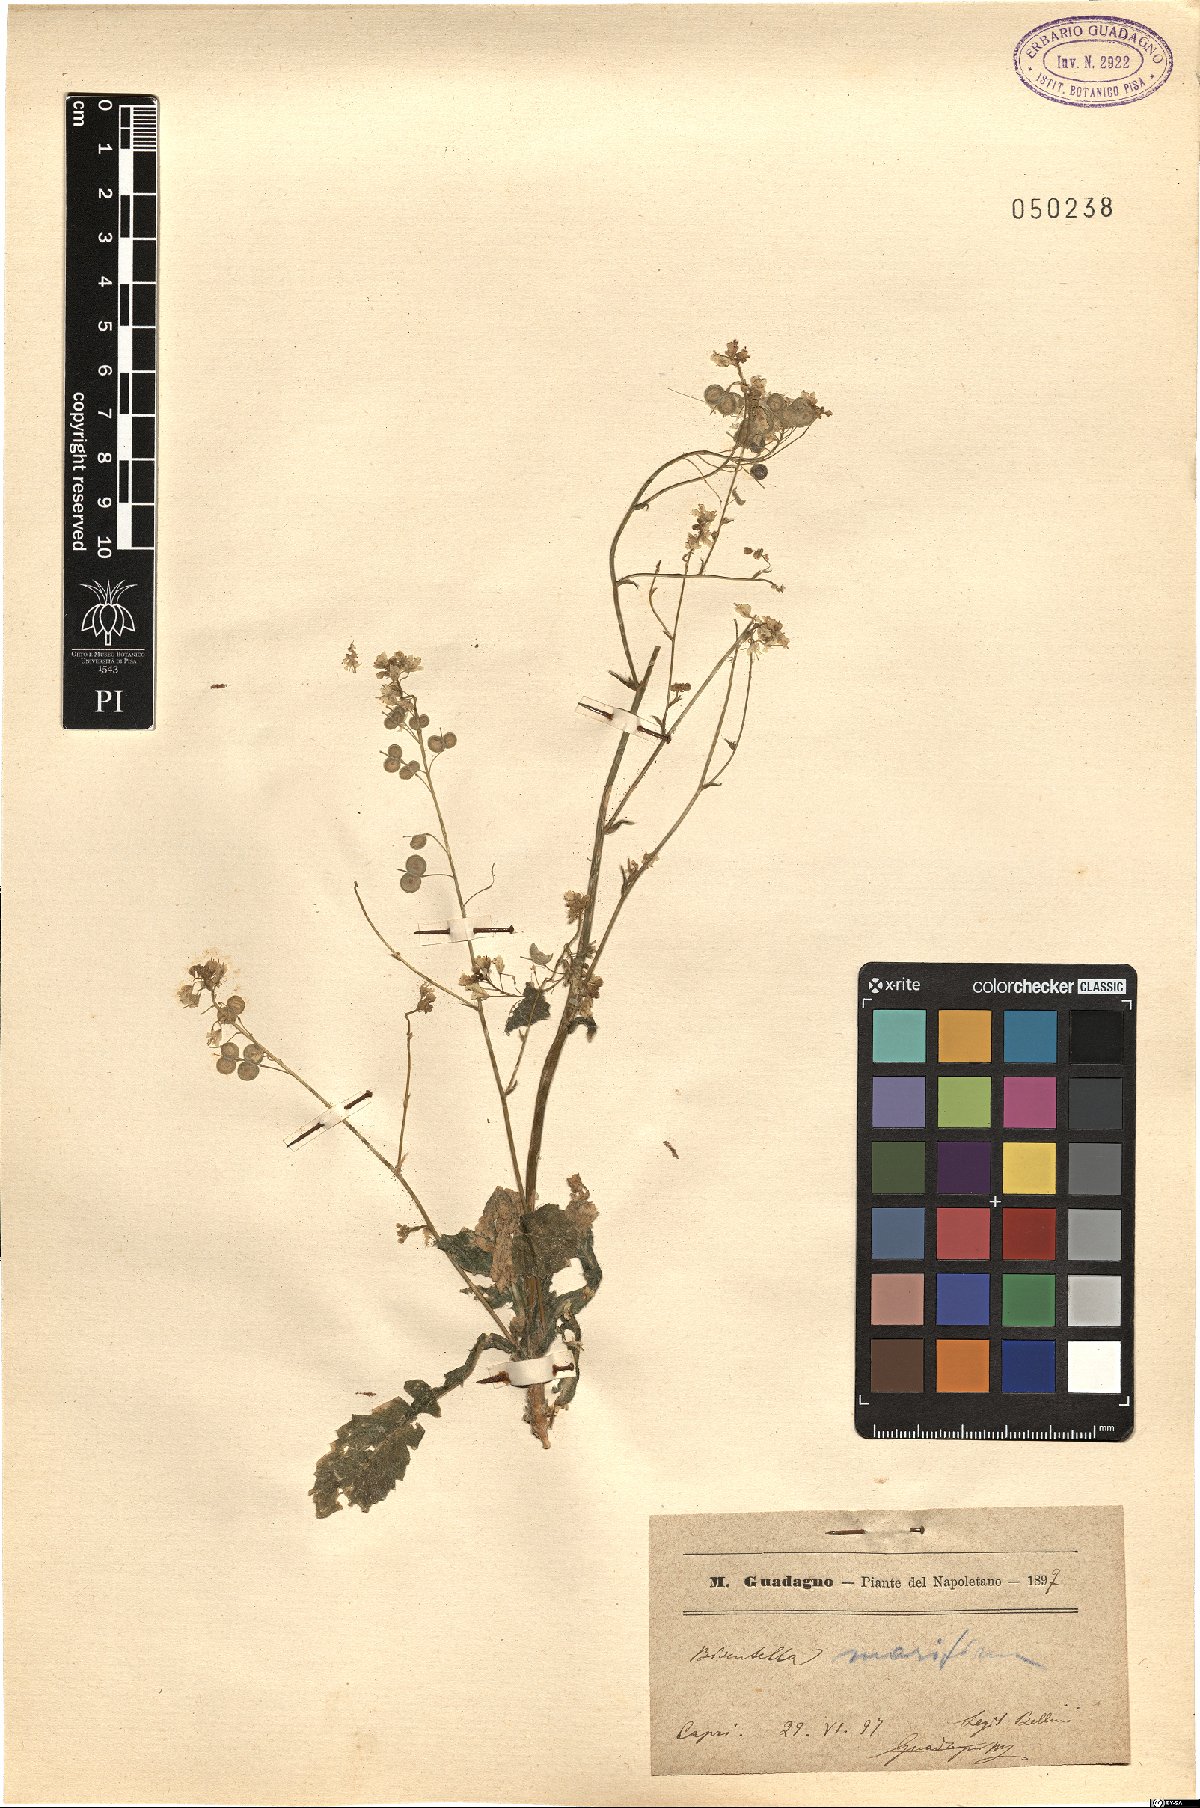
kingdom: Plantae
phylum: Tracheophyta
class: Magnoliopsida
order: Brassicales
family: Brassicaceae
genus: Biscutella
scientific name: Biscutella maritima
